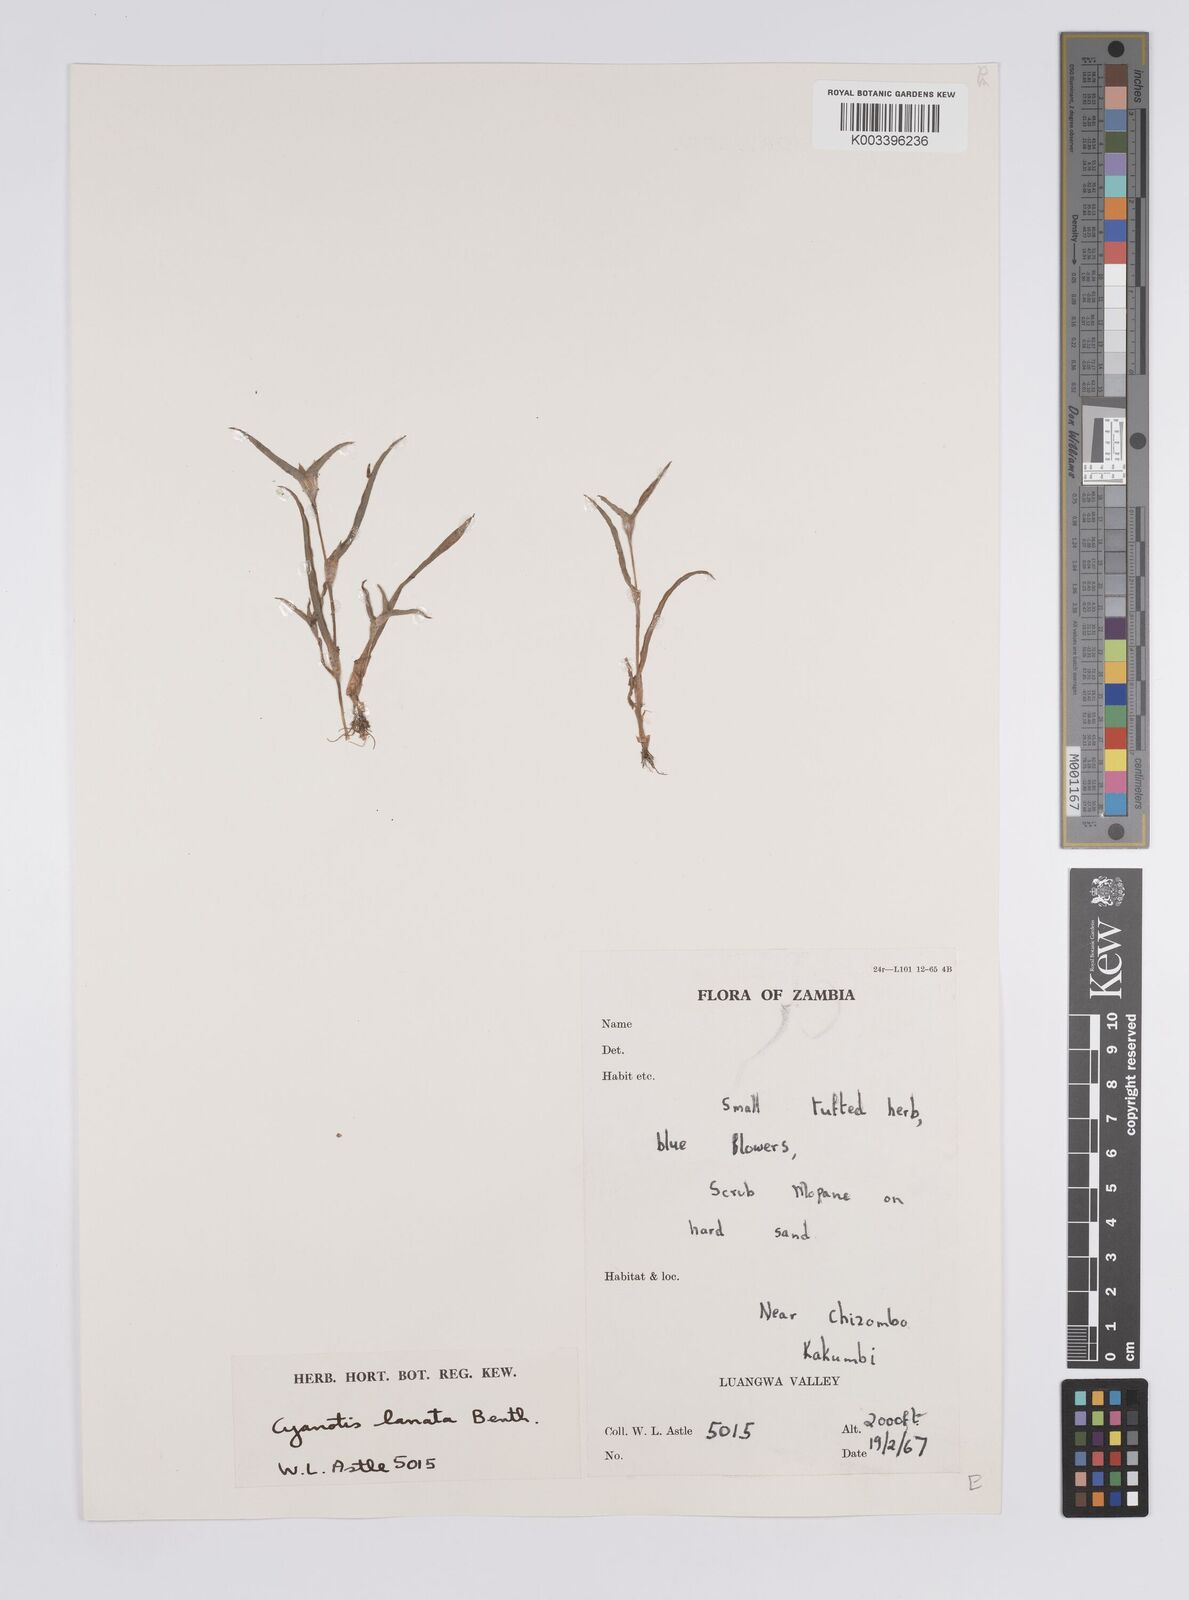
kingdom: Plantae
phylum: Tracheophyta
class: Liliopsida
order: Commelinales
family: Commelinaceae
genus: Cyanotis
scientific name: Cyanotis lanata
